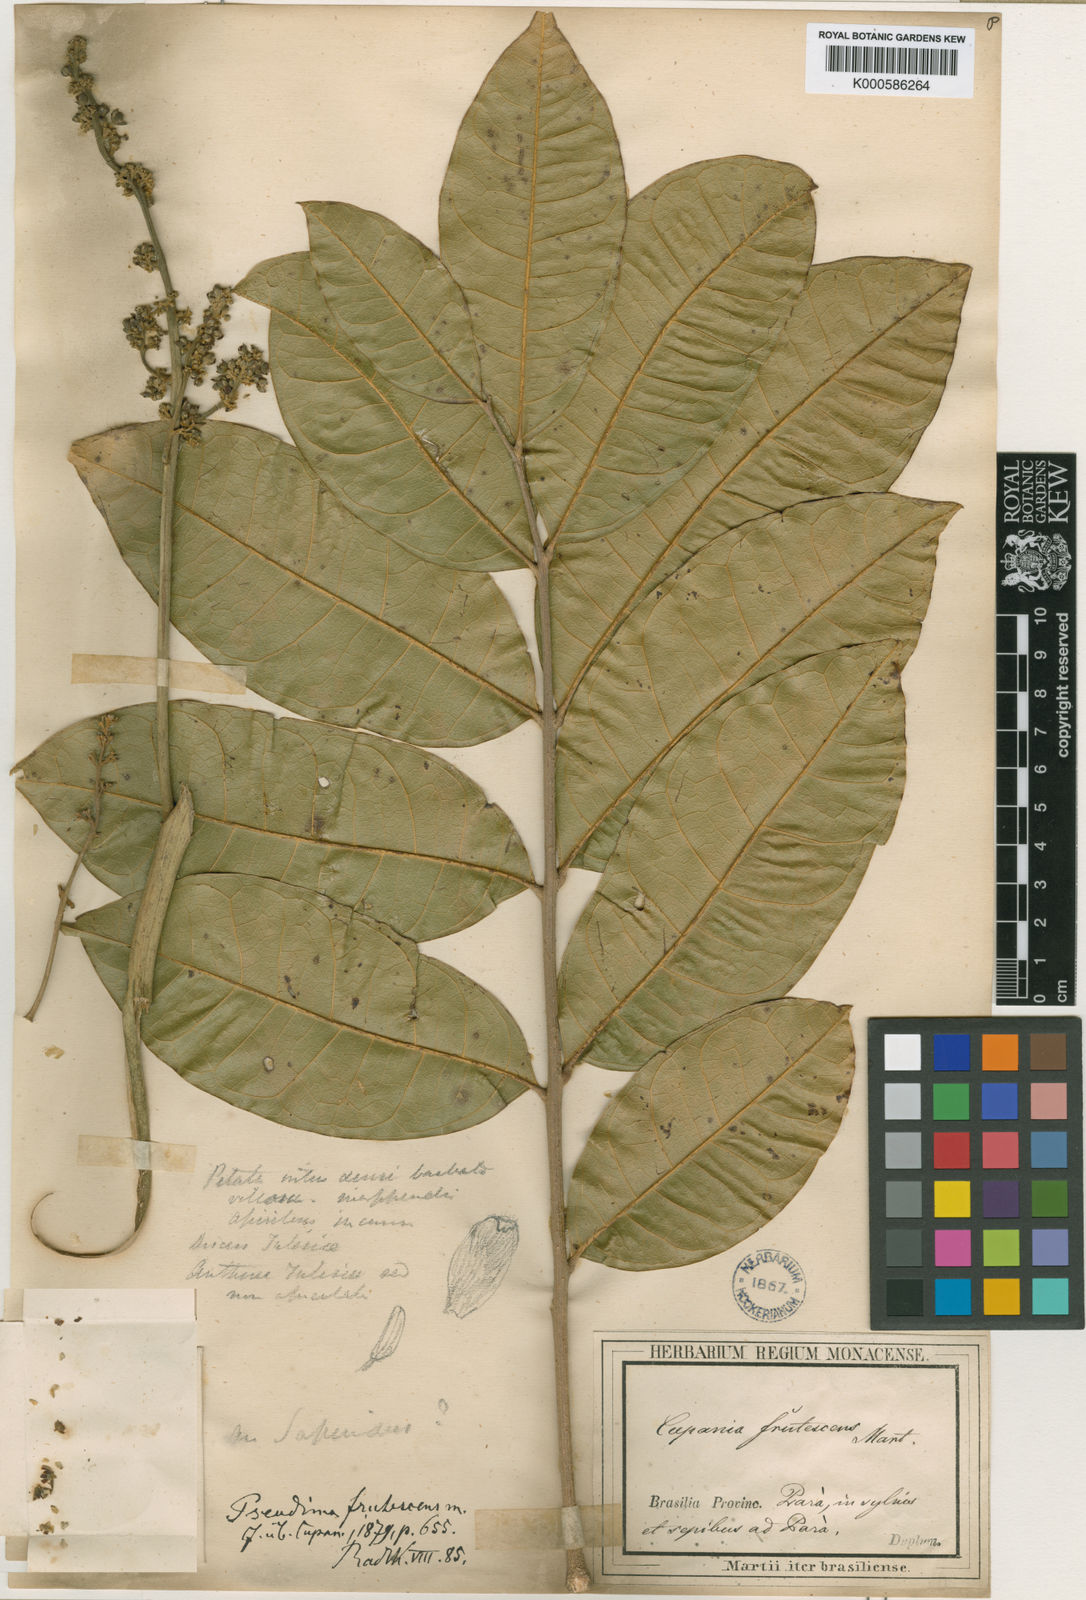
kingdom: Plantae
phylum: Tracheophyta
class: Magnoliopsida
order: Sapindales
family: Sapindaceae
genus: Pseudima
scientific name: Pseudima frutescens
